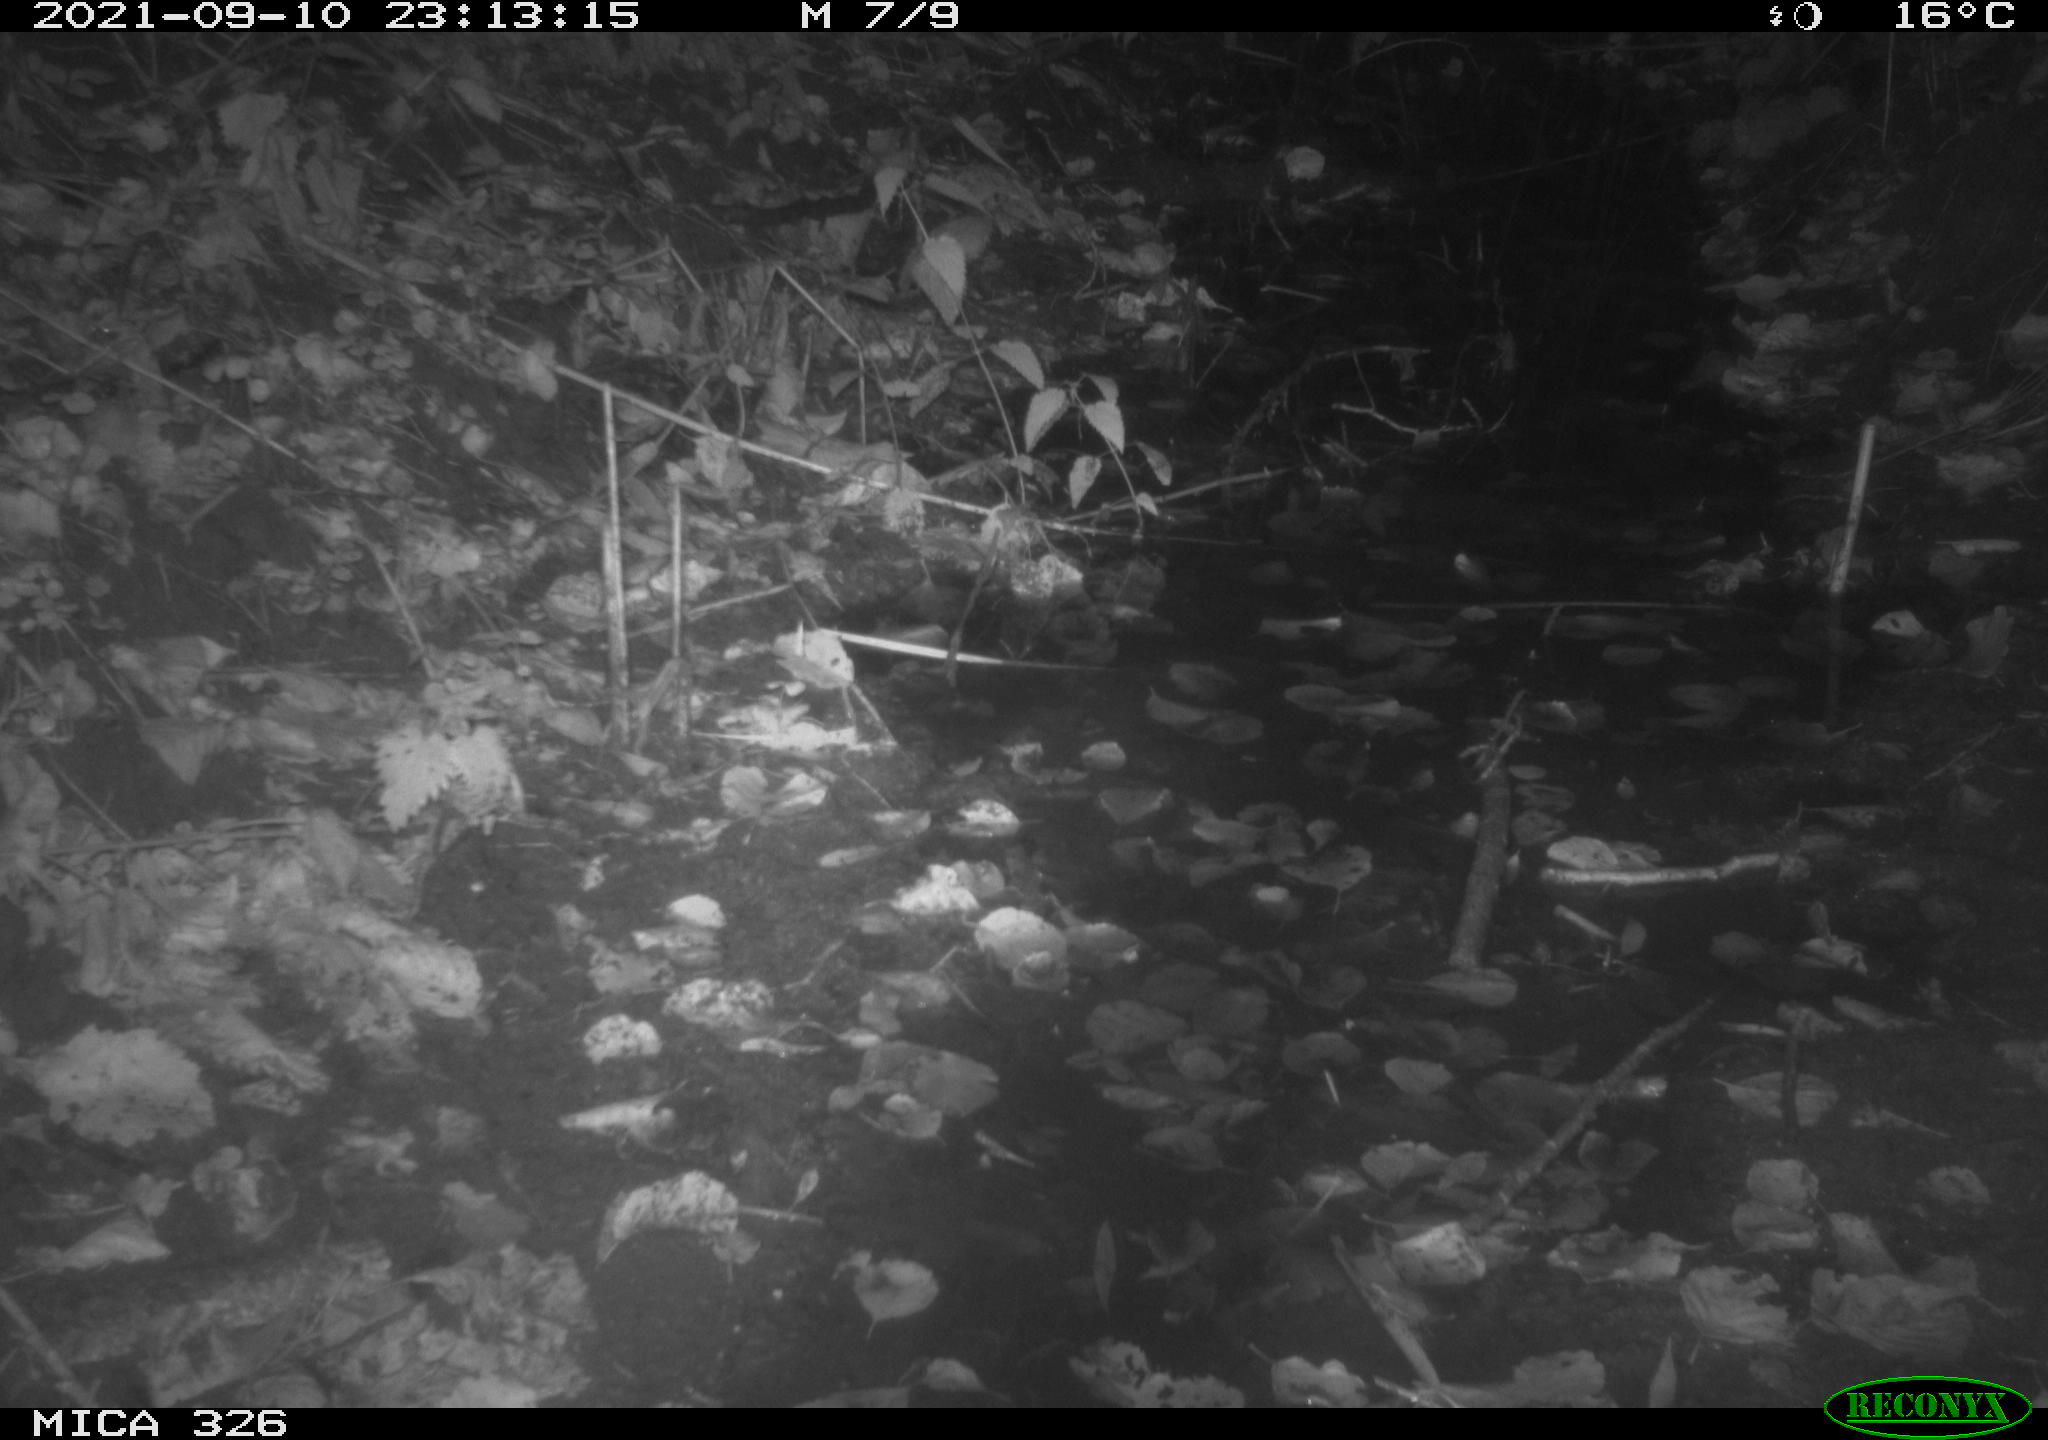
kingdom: Animalia
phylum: Chordata
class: Mammalia
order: Rodentia
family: Muridae
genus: Rattus
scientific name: Rattus norvegicus
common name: Brown rat
